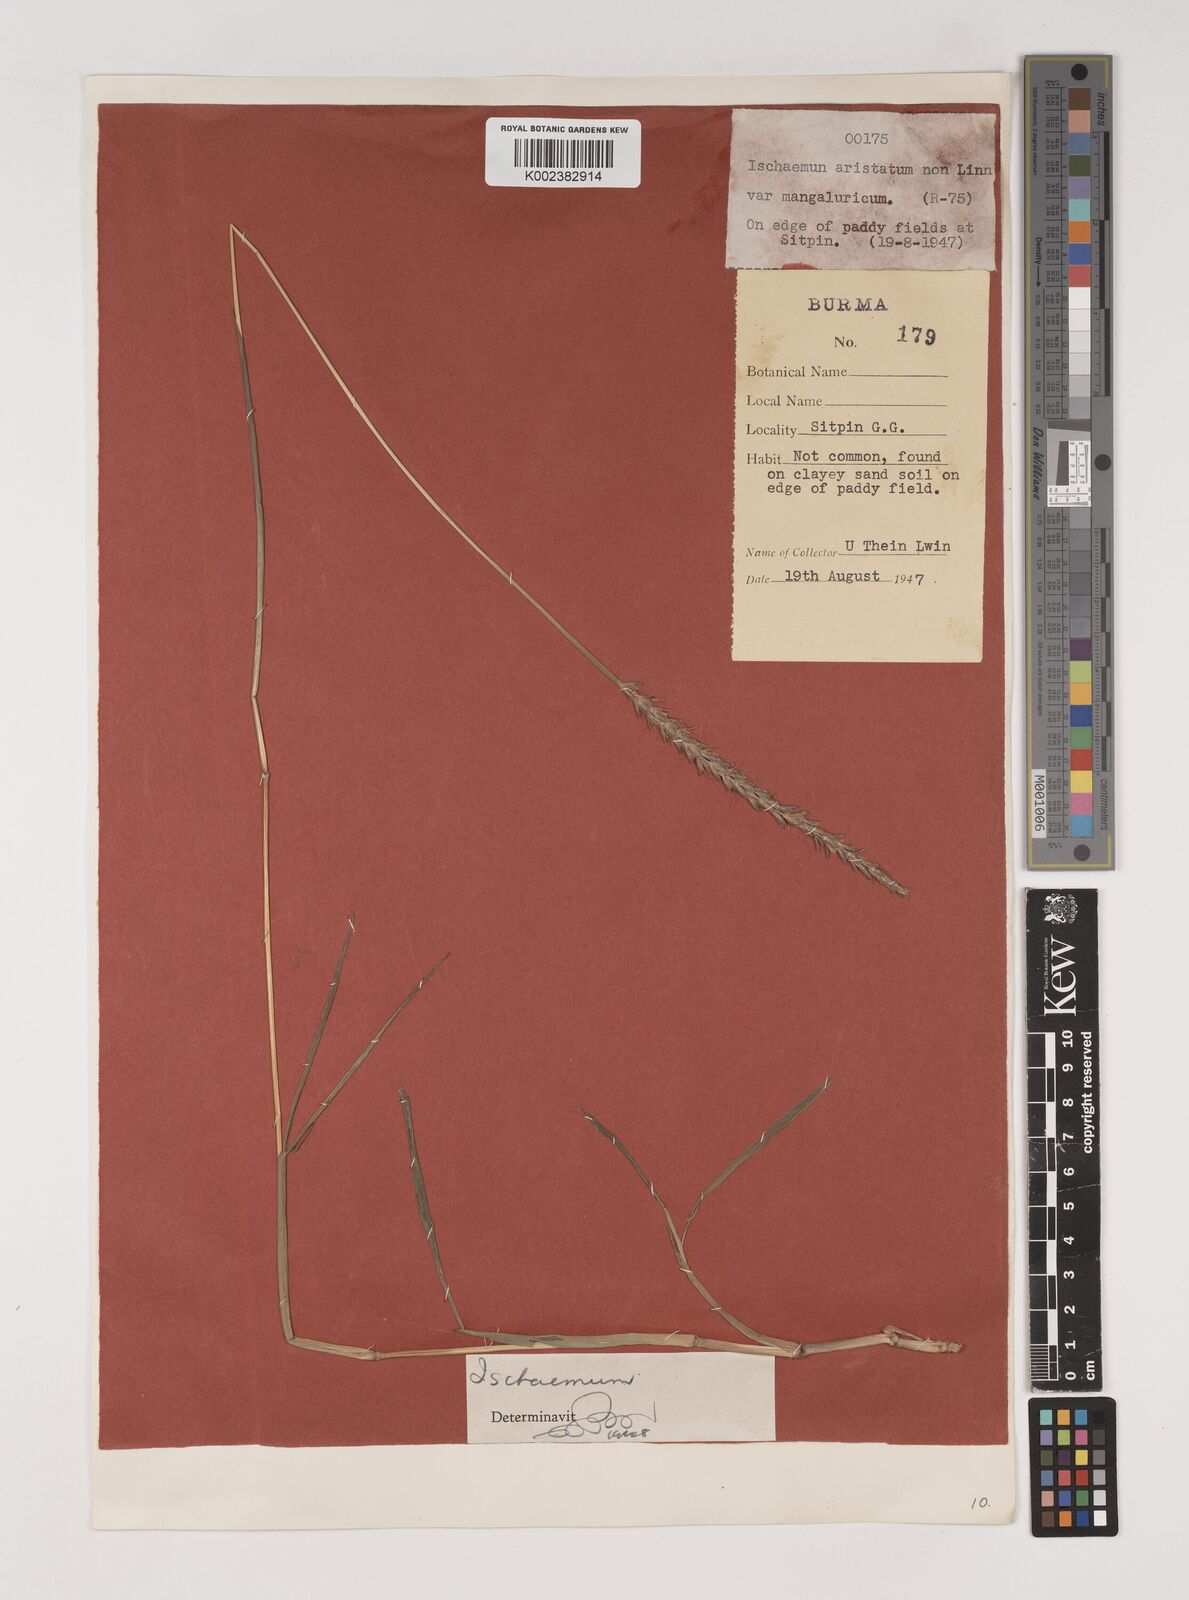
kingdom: Plantae
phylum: Tracheophyta
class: Liliopsida
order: Poales
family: Poaceae
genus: Ischaemum
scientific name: Ischaemum
